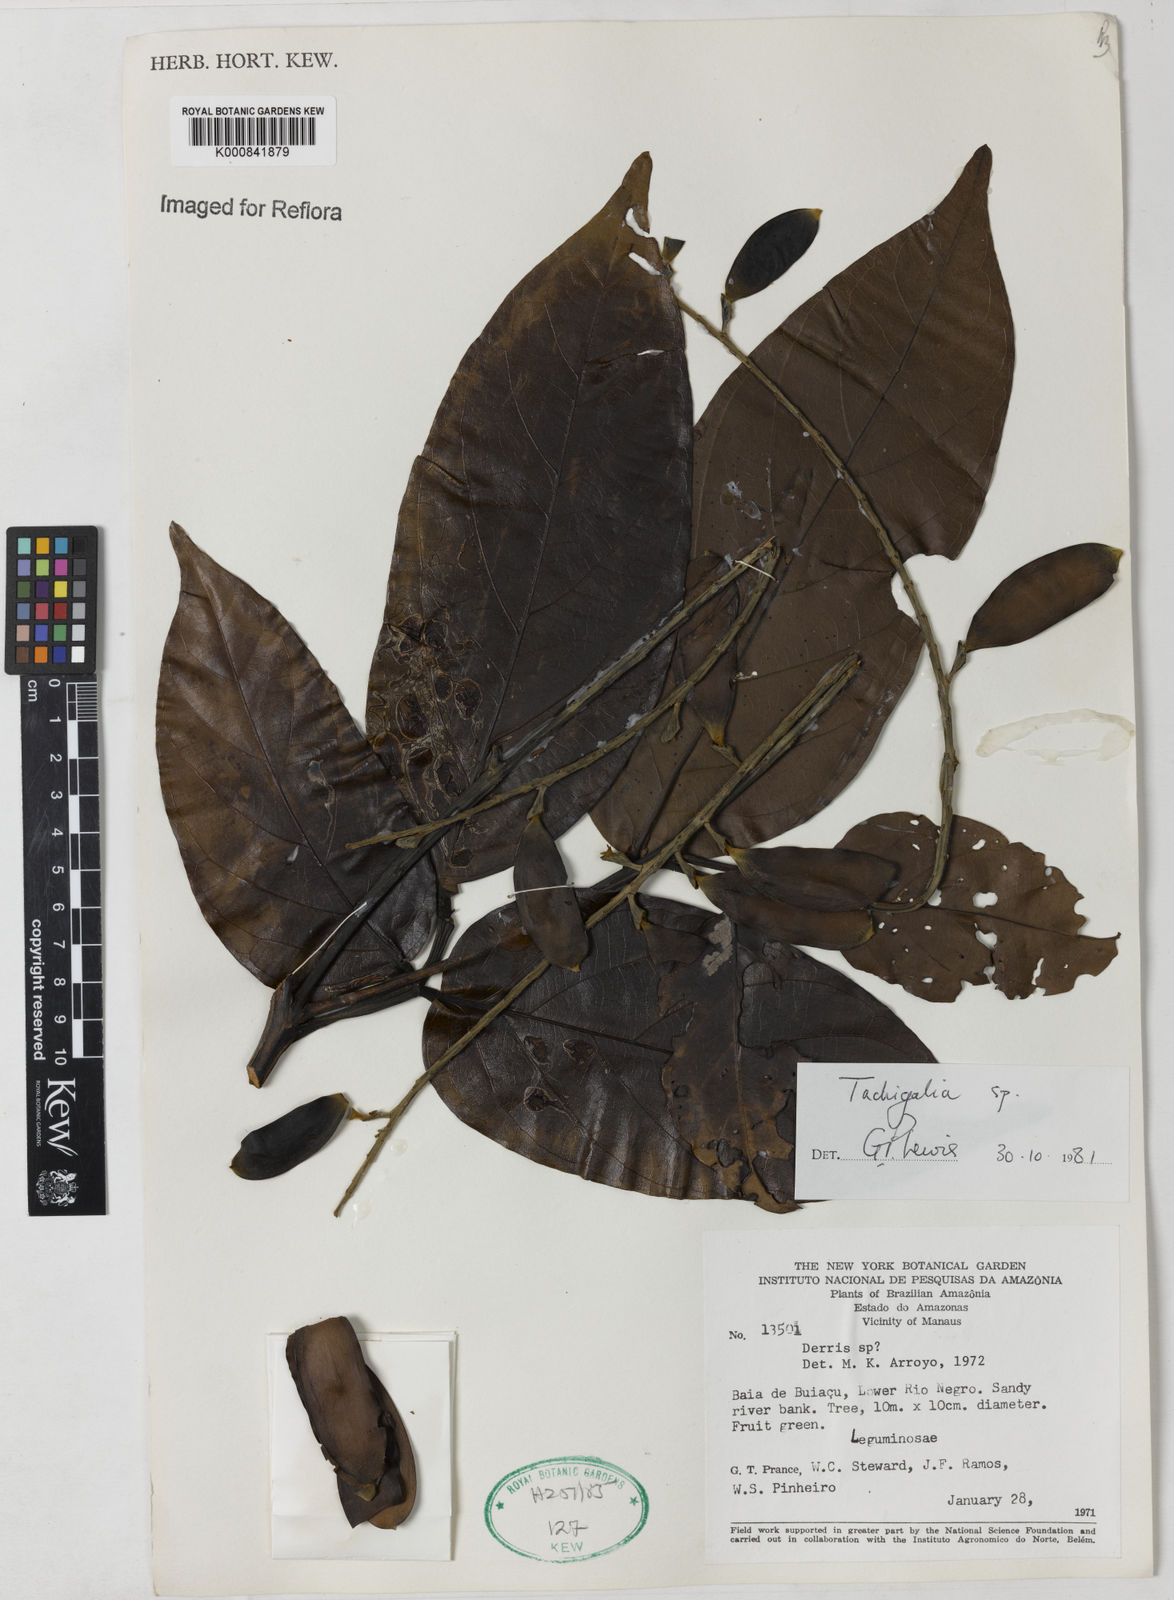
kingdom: Plantae
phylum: Tracheophyta
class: Magnoliopsida
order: Fabales
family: Fabaceae
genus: Tachigali
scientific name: Tachigali
